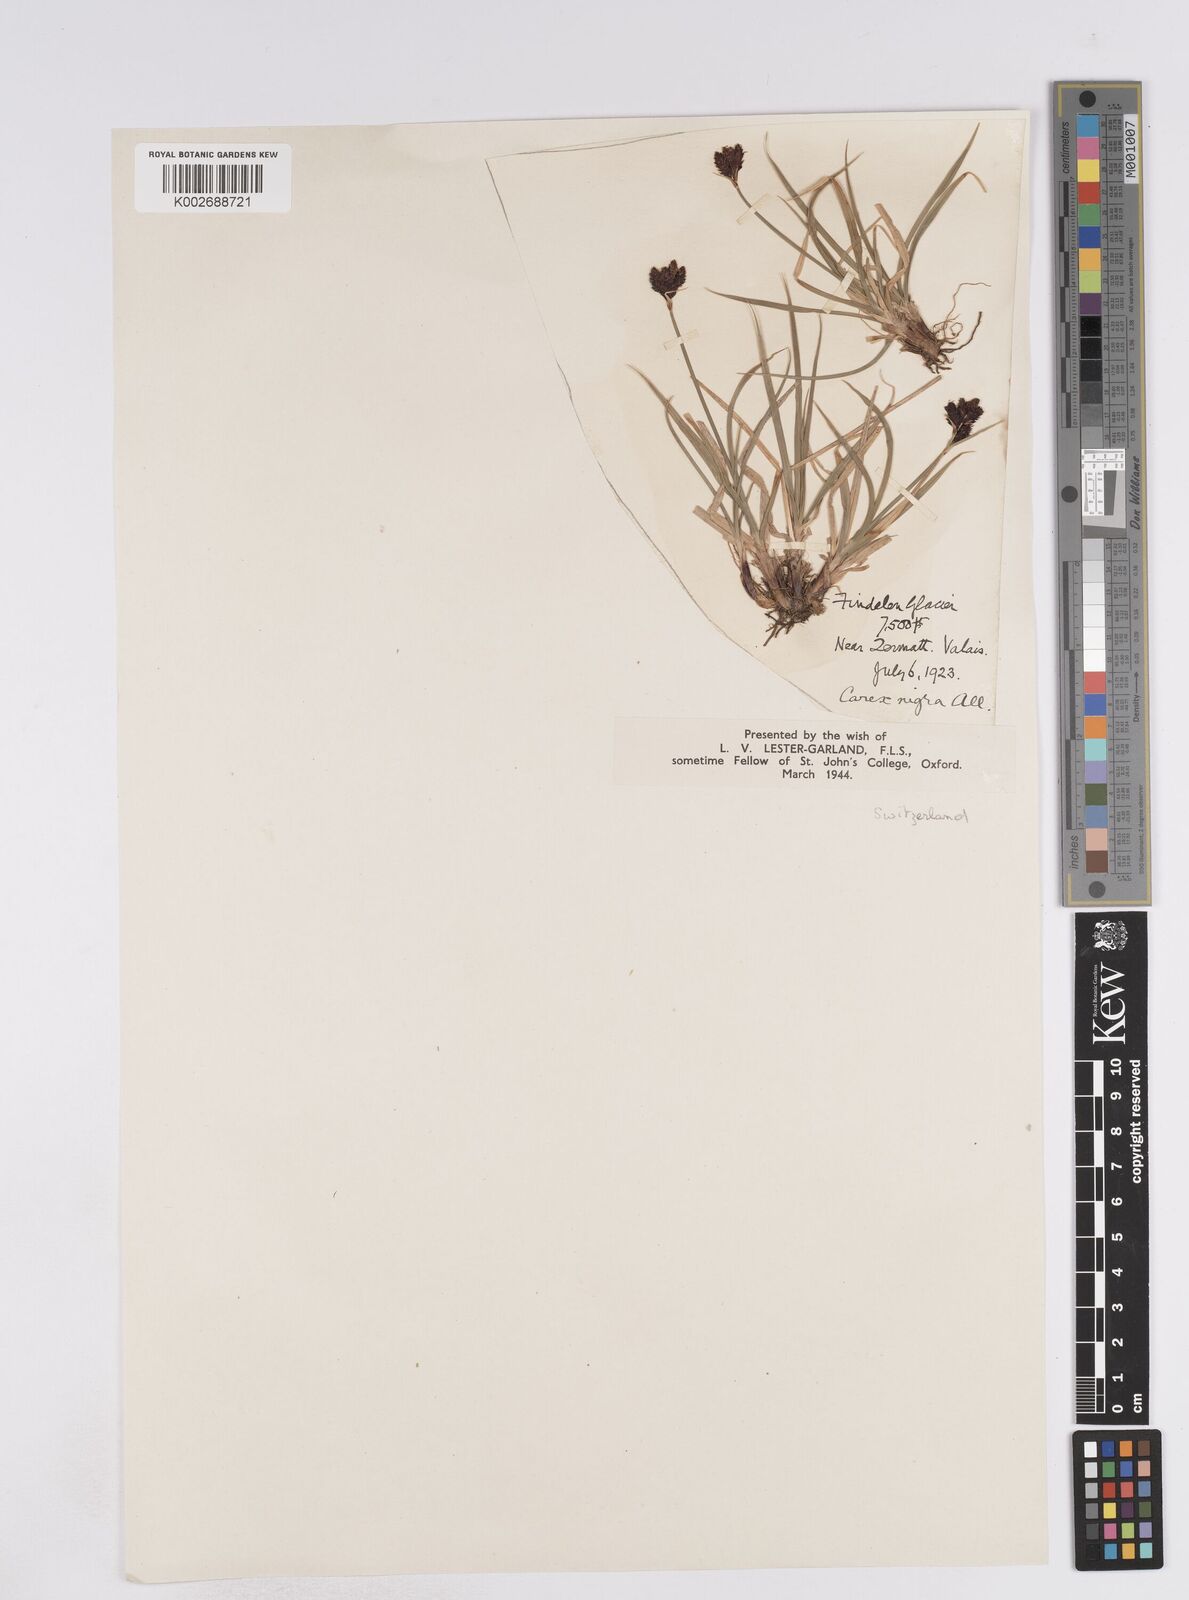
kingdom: Plantae
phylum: Tracheophyta
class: Liliopsida
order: Poales
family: Cyperaceae
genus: Carex
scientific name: Carex parviflora
